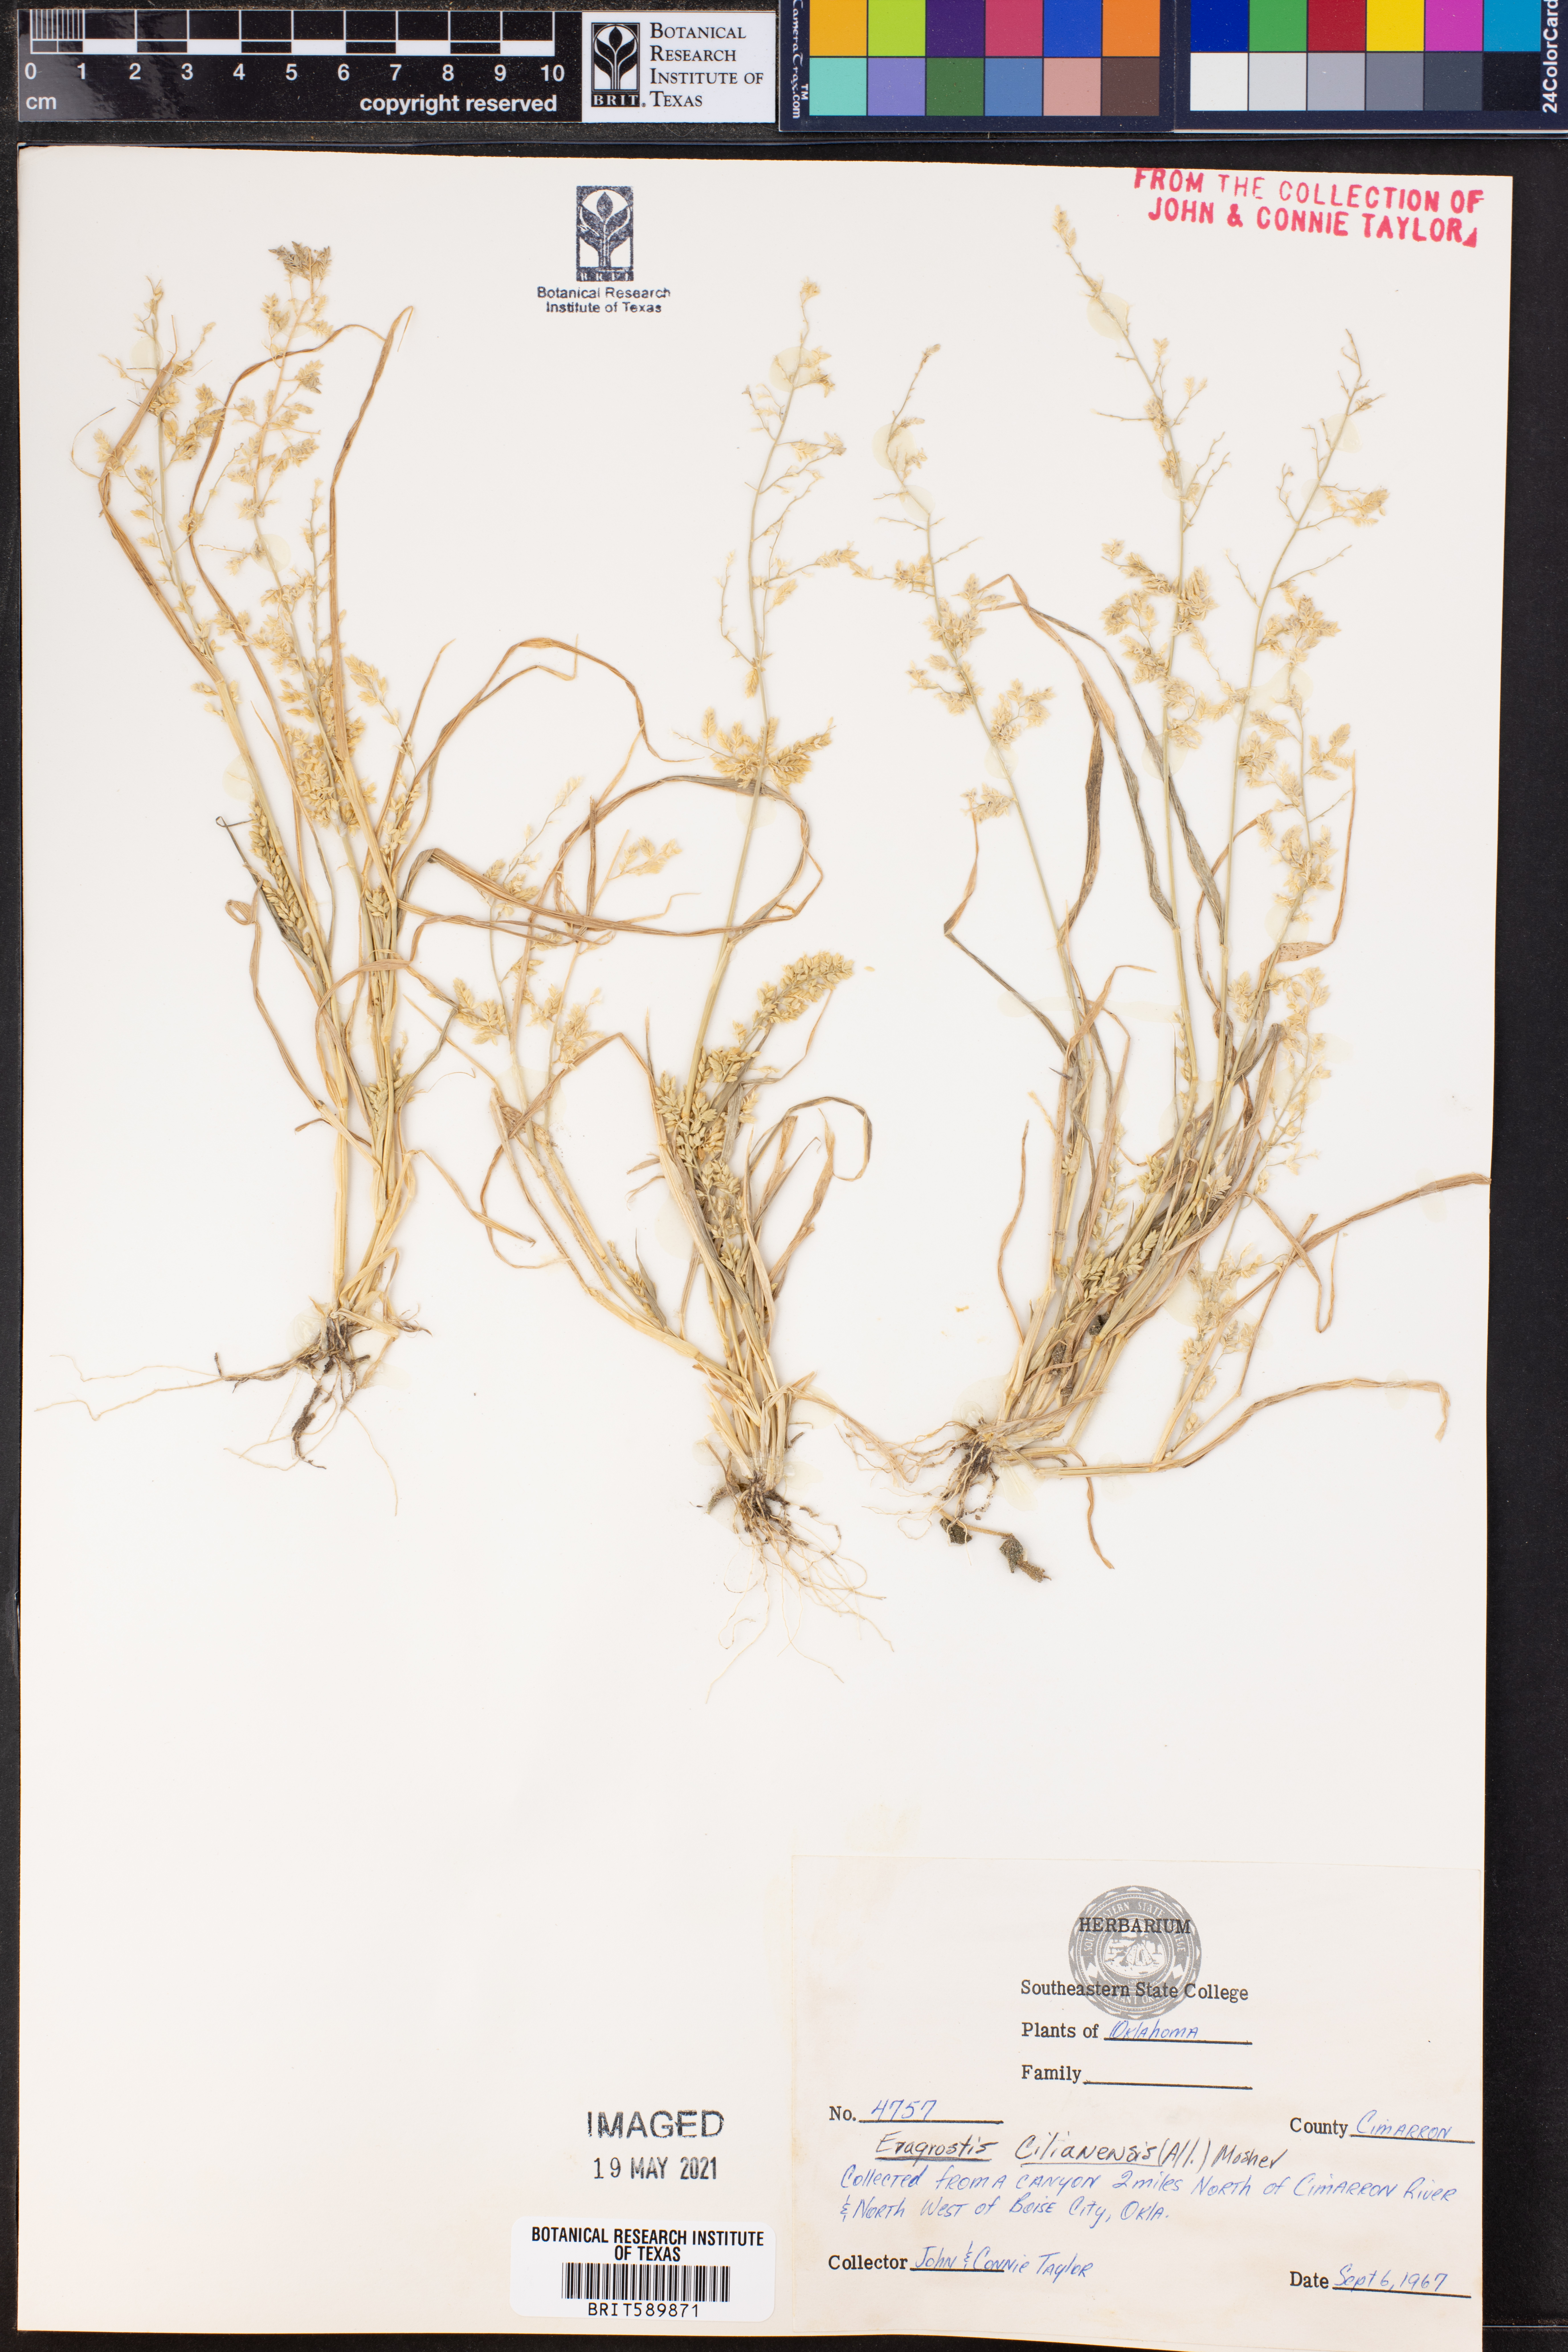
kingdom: Plantae
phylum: Tracheophyta
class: Liliopsida
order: Poales
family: Poaceae
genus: Eragrostis
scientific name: Eragrostis cilianensis
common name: Stinkgrass
